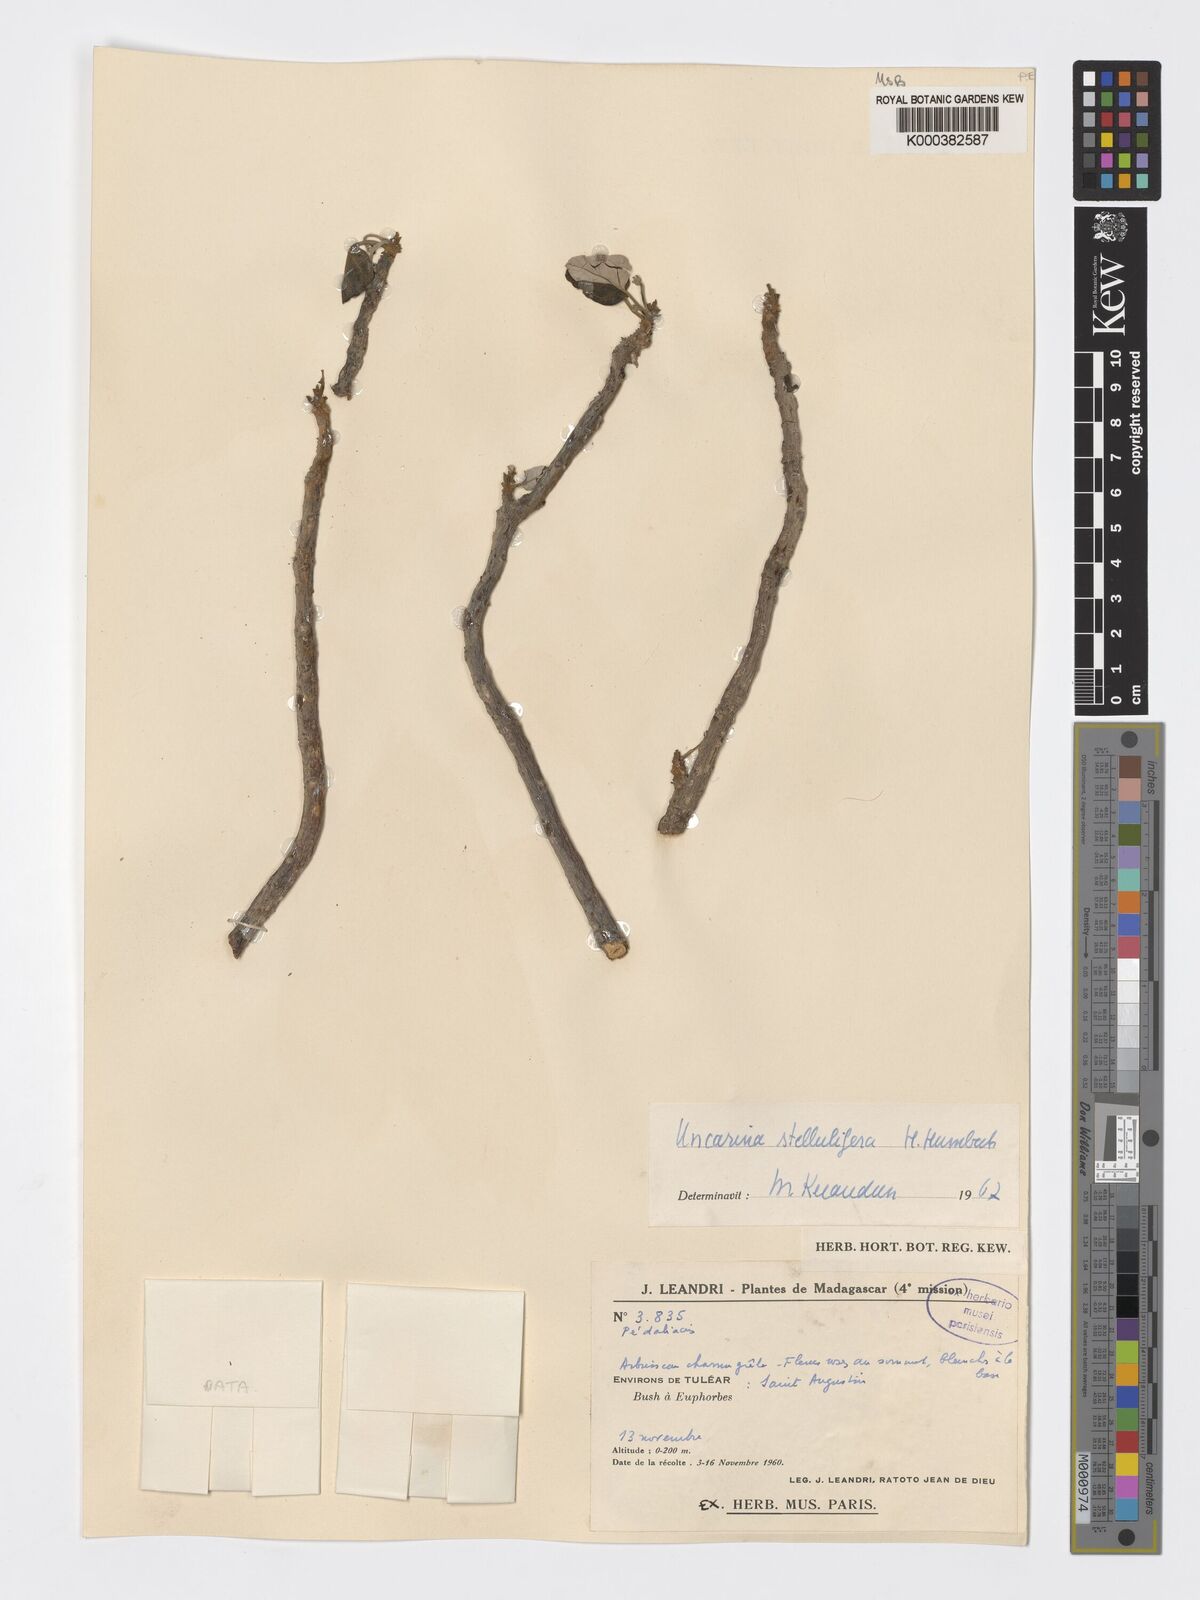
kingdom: Plantae
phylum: Tracheophyta
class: Magnoliopsida
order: Lamiales
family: Pedaliaceae
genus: Uncarina
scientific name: Uncarina stellulifera
